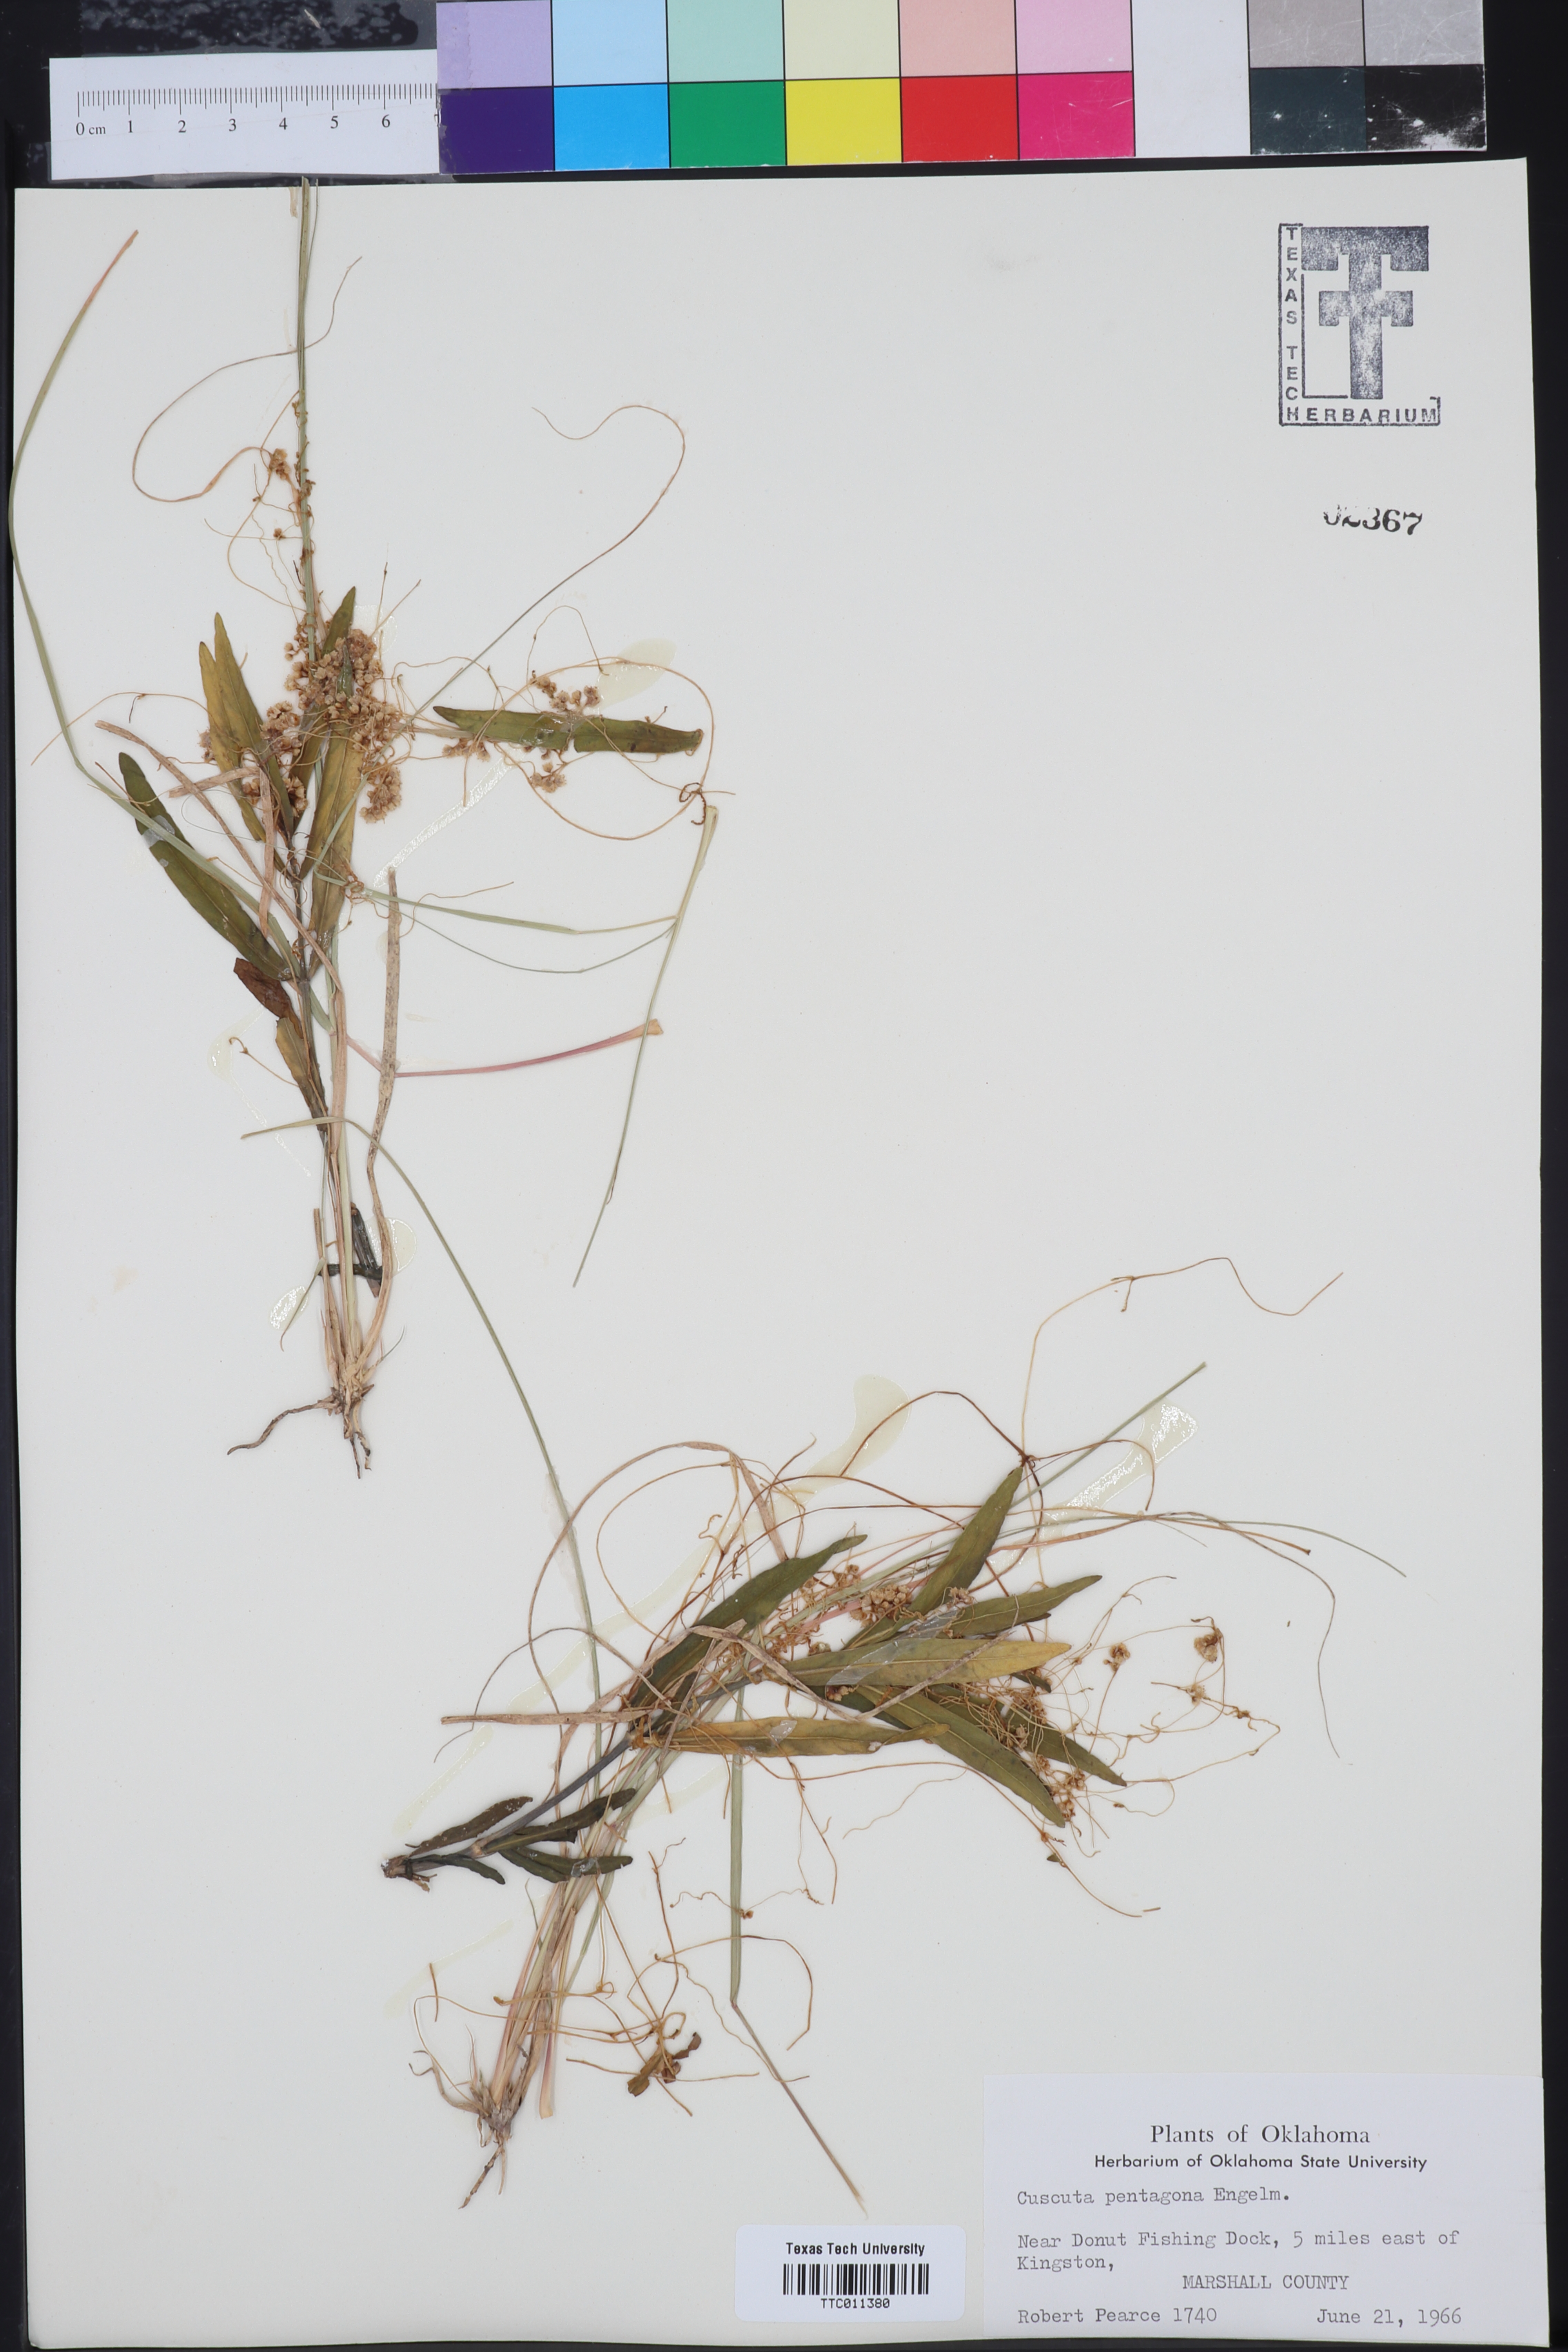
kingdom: Plantae
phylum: Tracheophyta
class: Magnoliopsida
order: Solanales
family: Convolvulaceae
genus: Cuscuta
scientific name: Cuscuta pentagona
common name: Fiveangled dodder
